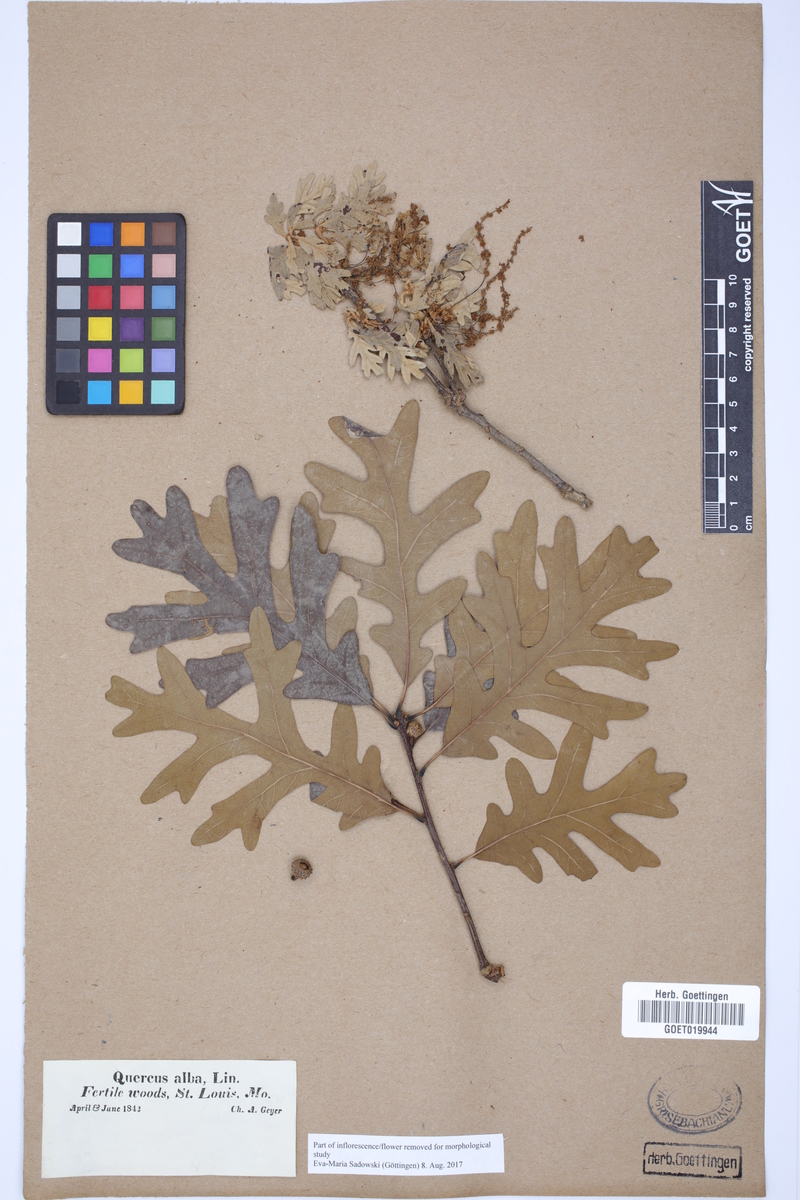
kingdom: Plantae
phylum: Tracheophyta
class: Magnoliopsida
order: Fagales
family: Fagaceae
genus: Quercus
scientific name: Quercus alba
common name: White oak
